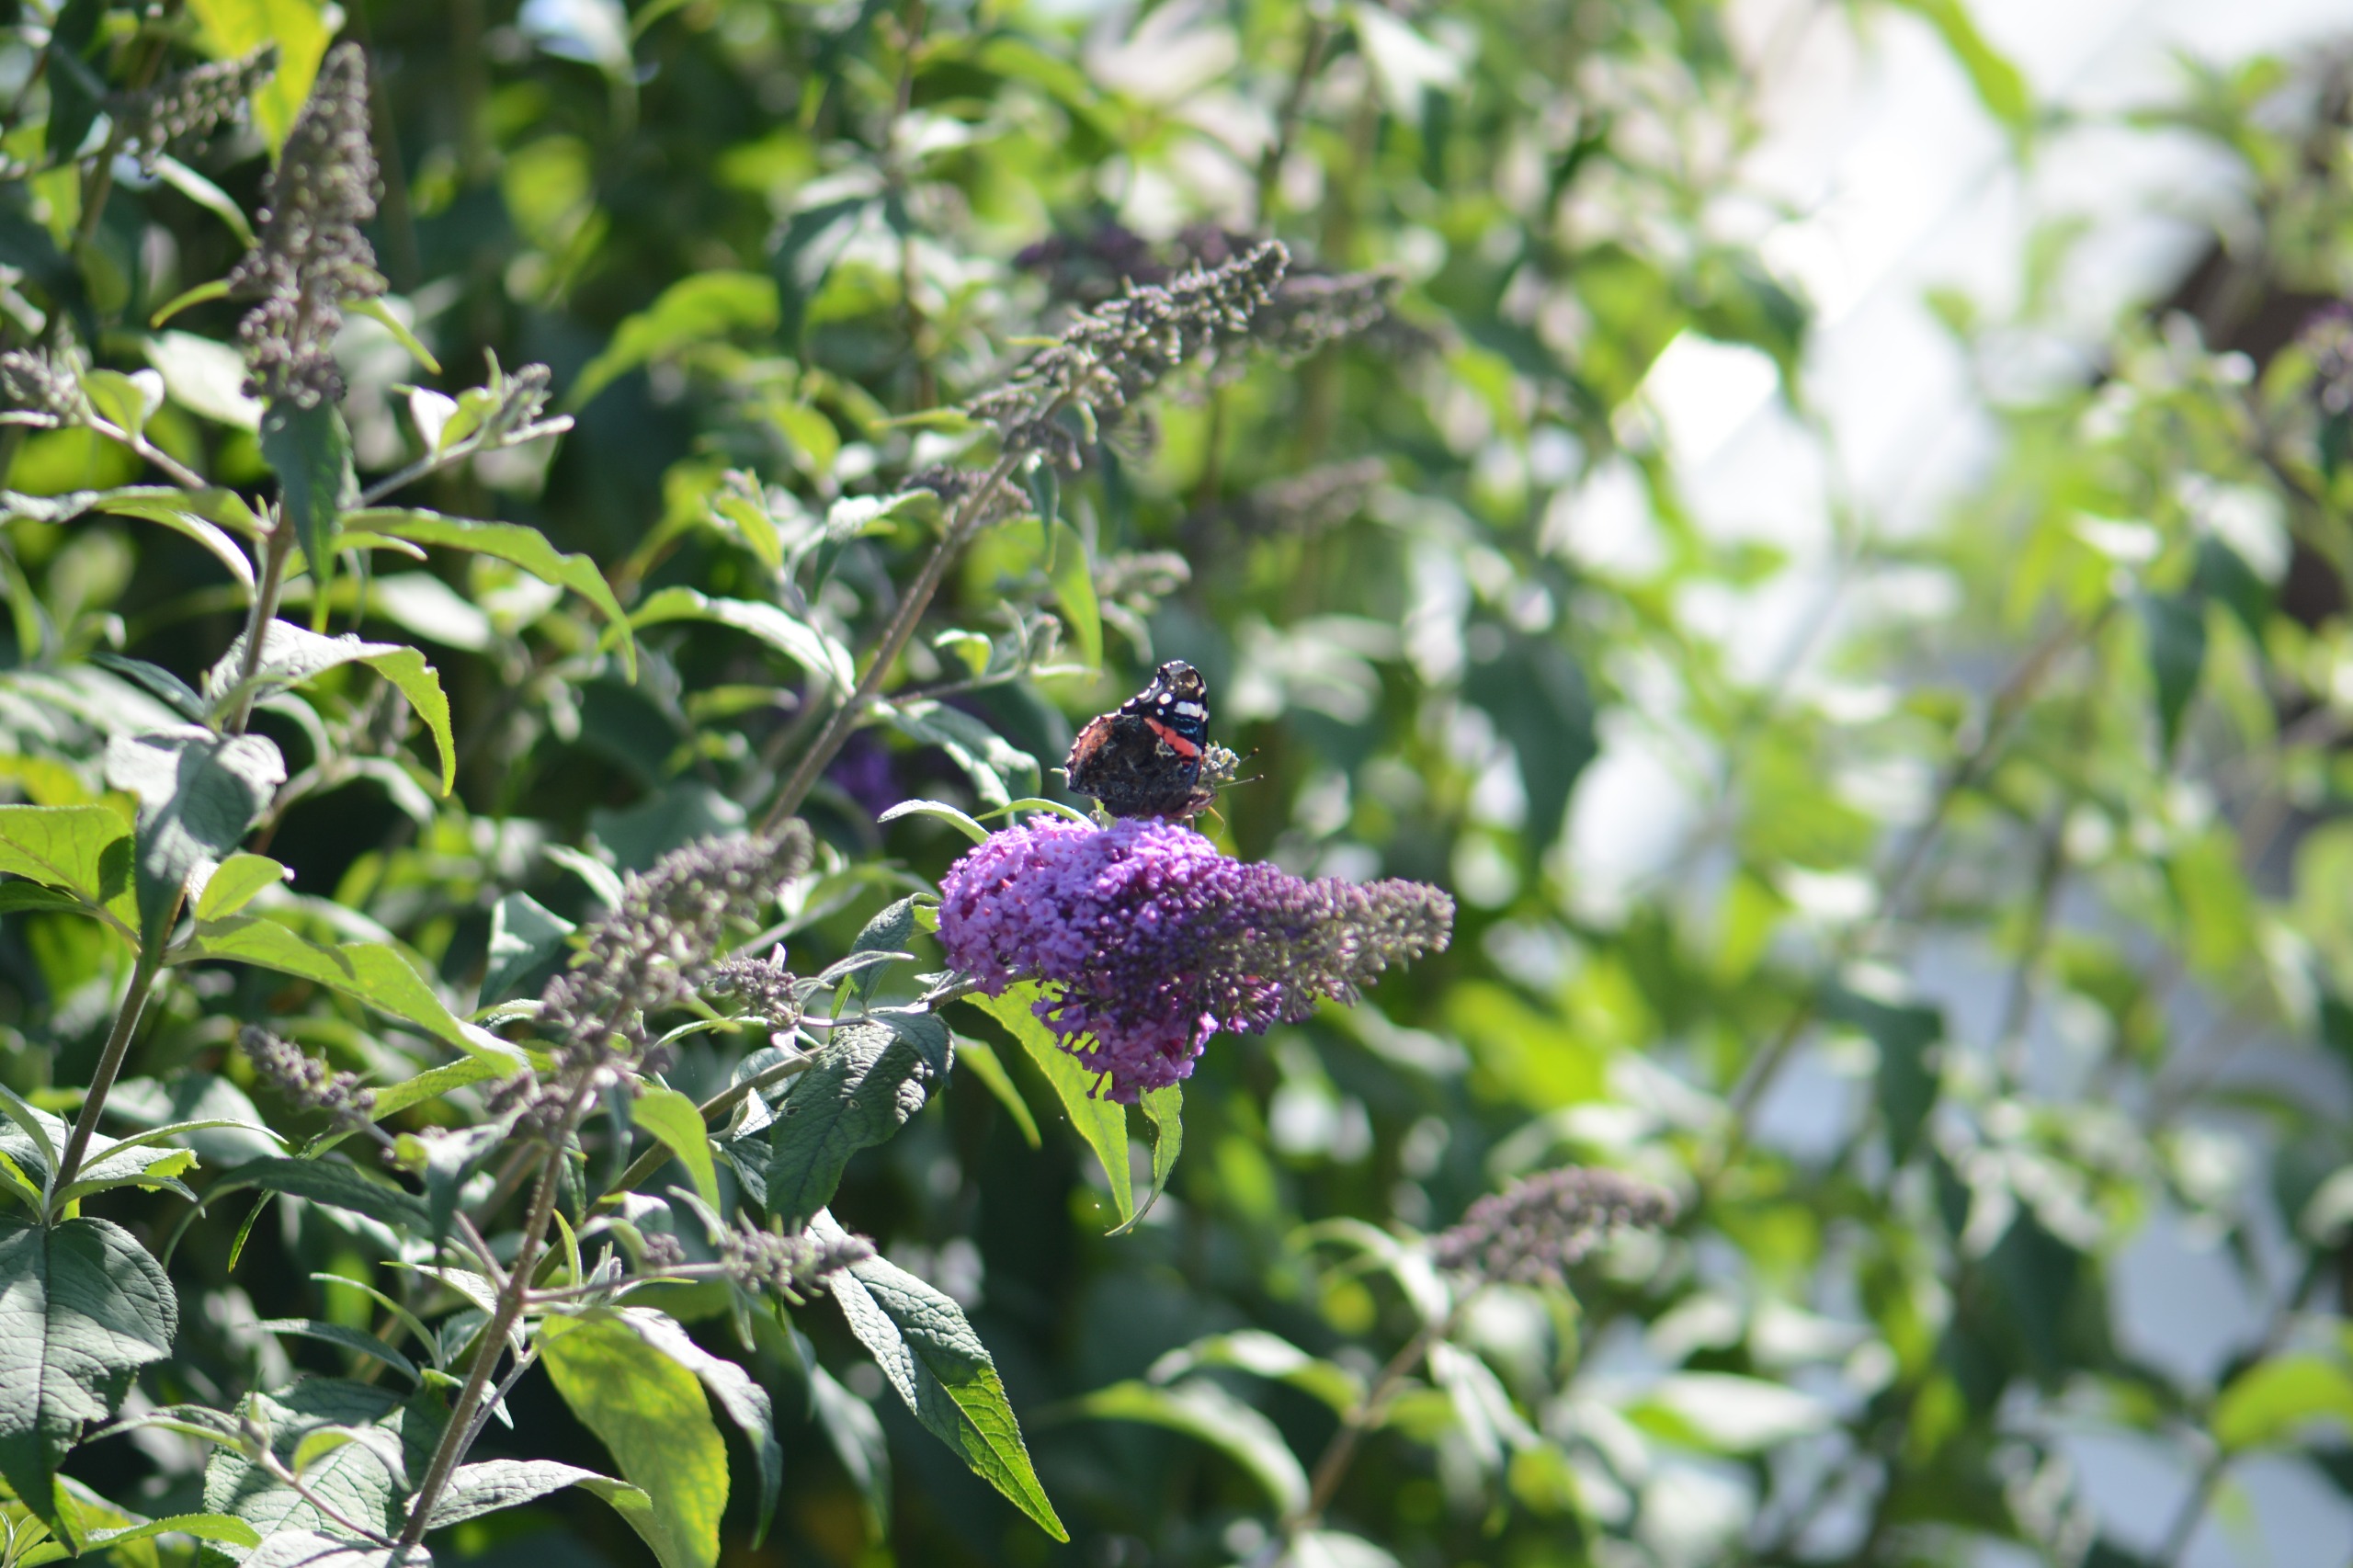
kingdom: Animalia
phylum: Arthropoda
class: Insecta
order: Lepidoptera
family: Nymphalidae
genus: Vanessa
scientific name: Vanessa atalanta
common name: Admiral
